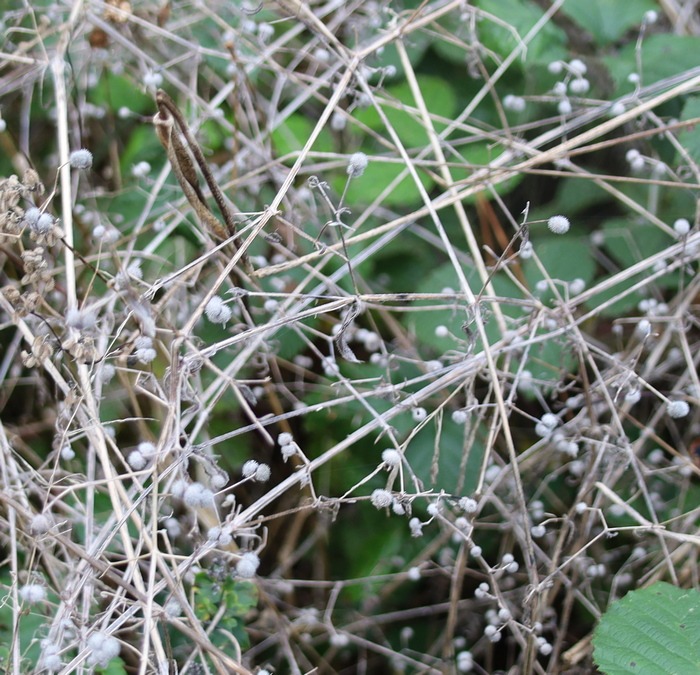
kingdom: Plantae
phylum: Tracheophyta
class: Magnoliopsida
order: Gentianales
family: Rubiaceae
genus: Galium
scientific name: Galium aparine
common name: Burre-snerre
